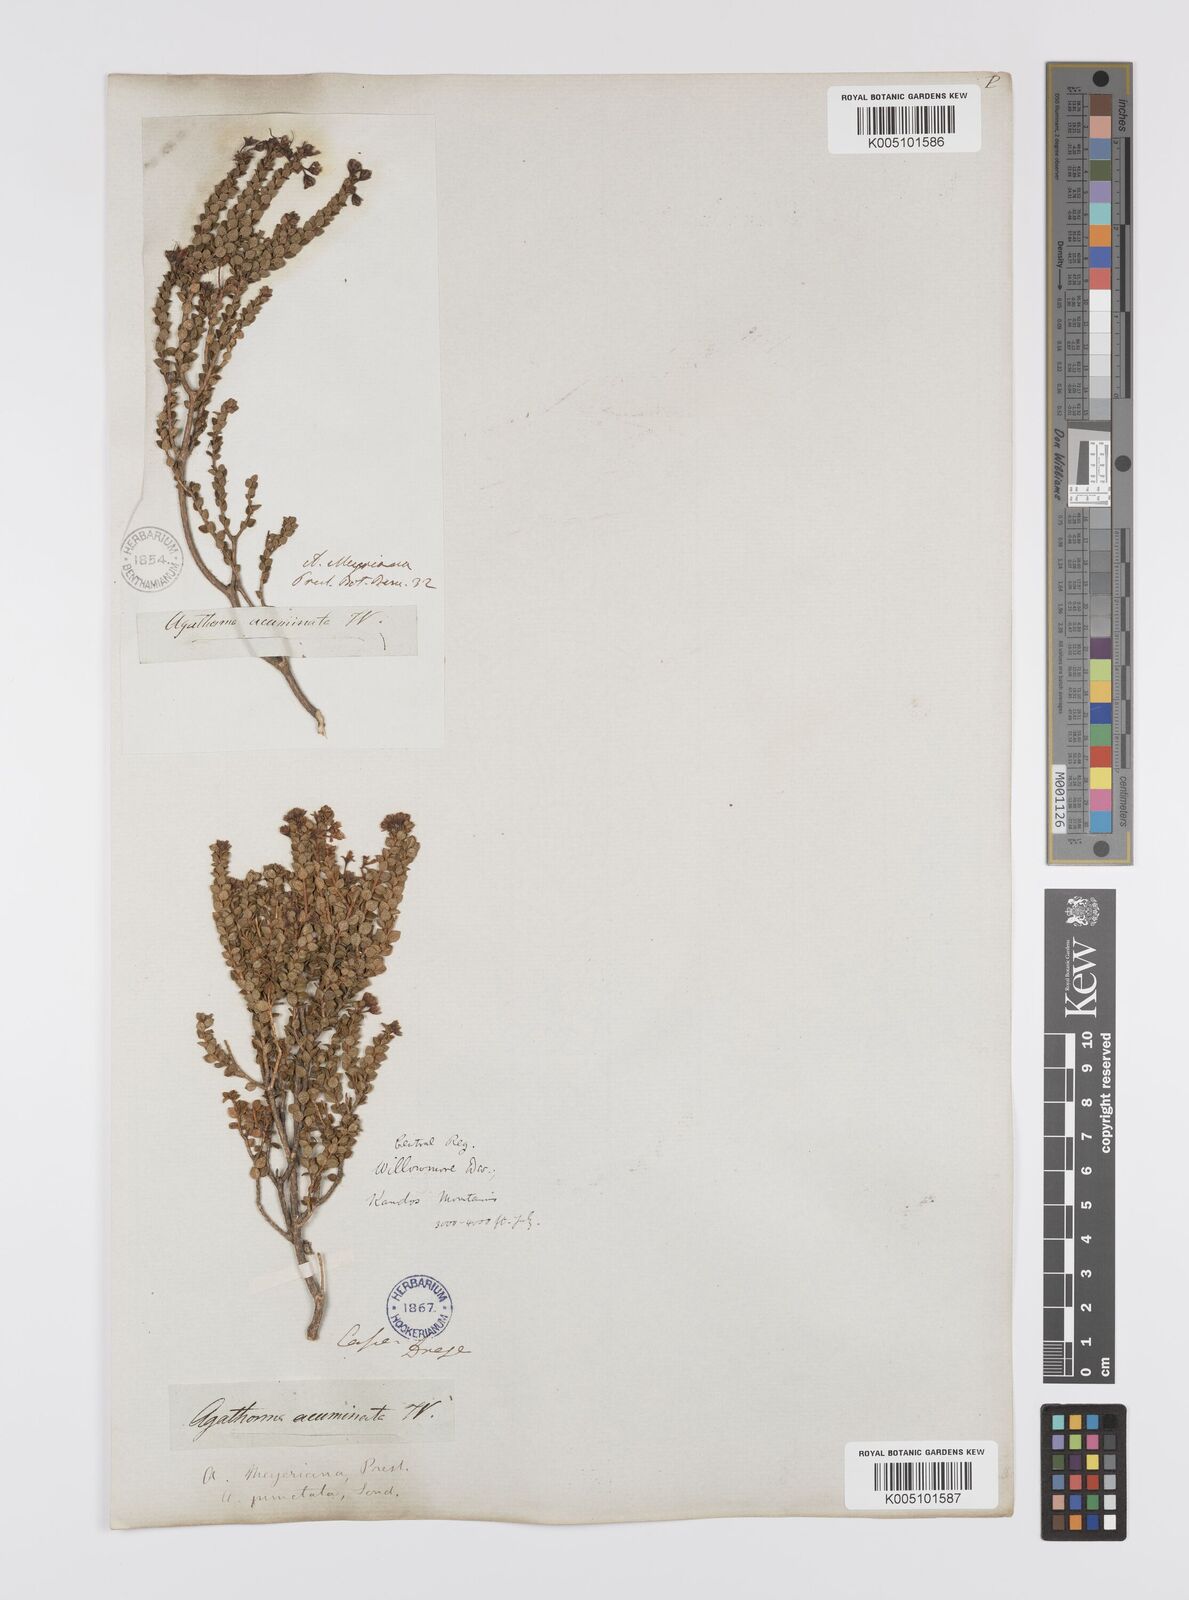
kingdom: Plantae
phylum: Tracheophyta
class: Magnoliopsida
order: Sapindales
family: Rutaceae
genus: Agathosma
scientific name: Agathosma ovalifolia
